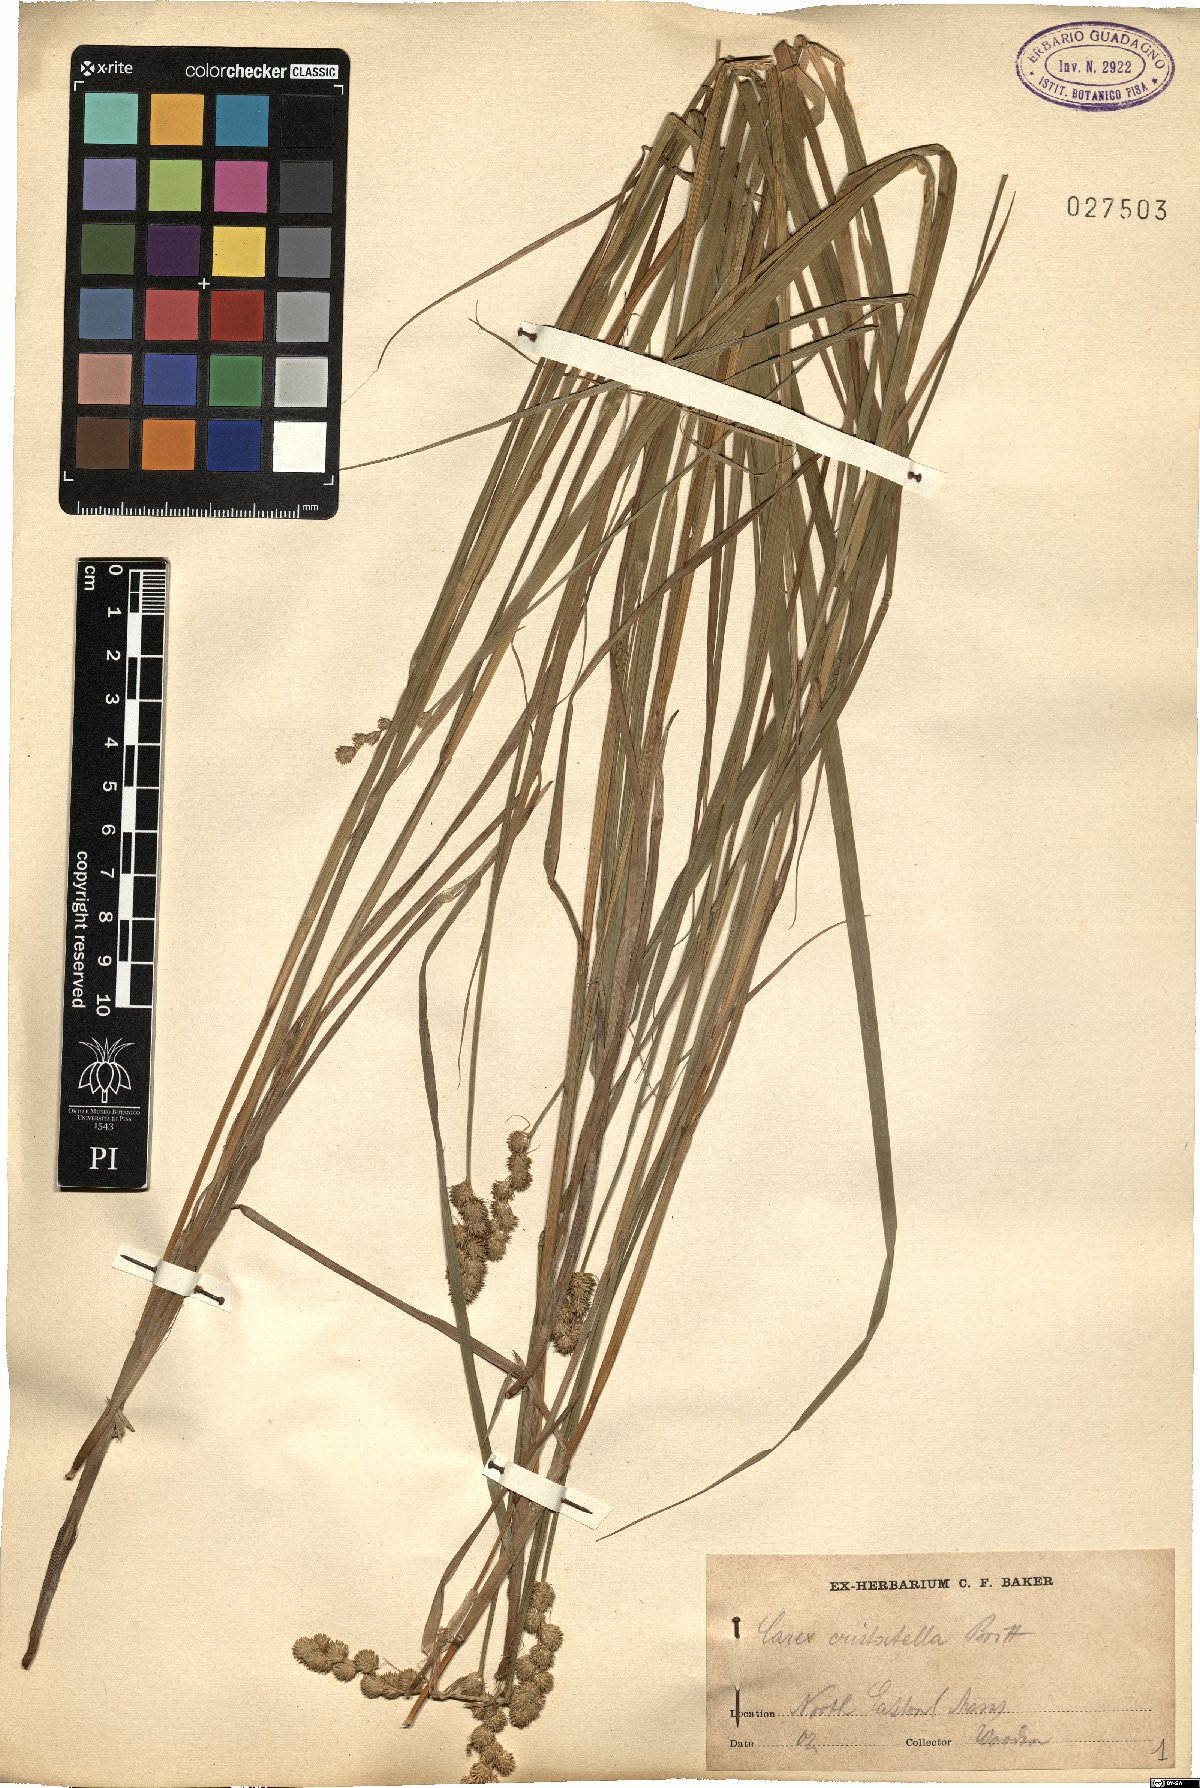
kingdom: Plantae
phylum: Tracheophyta
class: Liliopsida
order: Poales
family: Cyperaceae
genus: Carex
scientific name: Carex communis
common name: Colonial oak sedge
